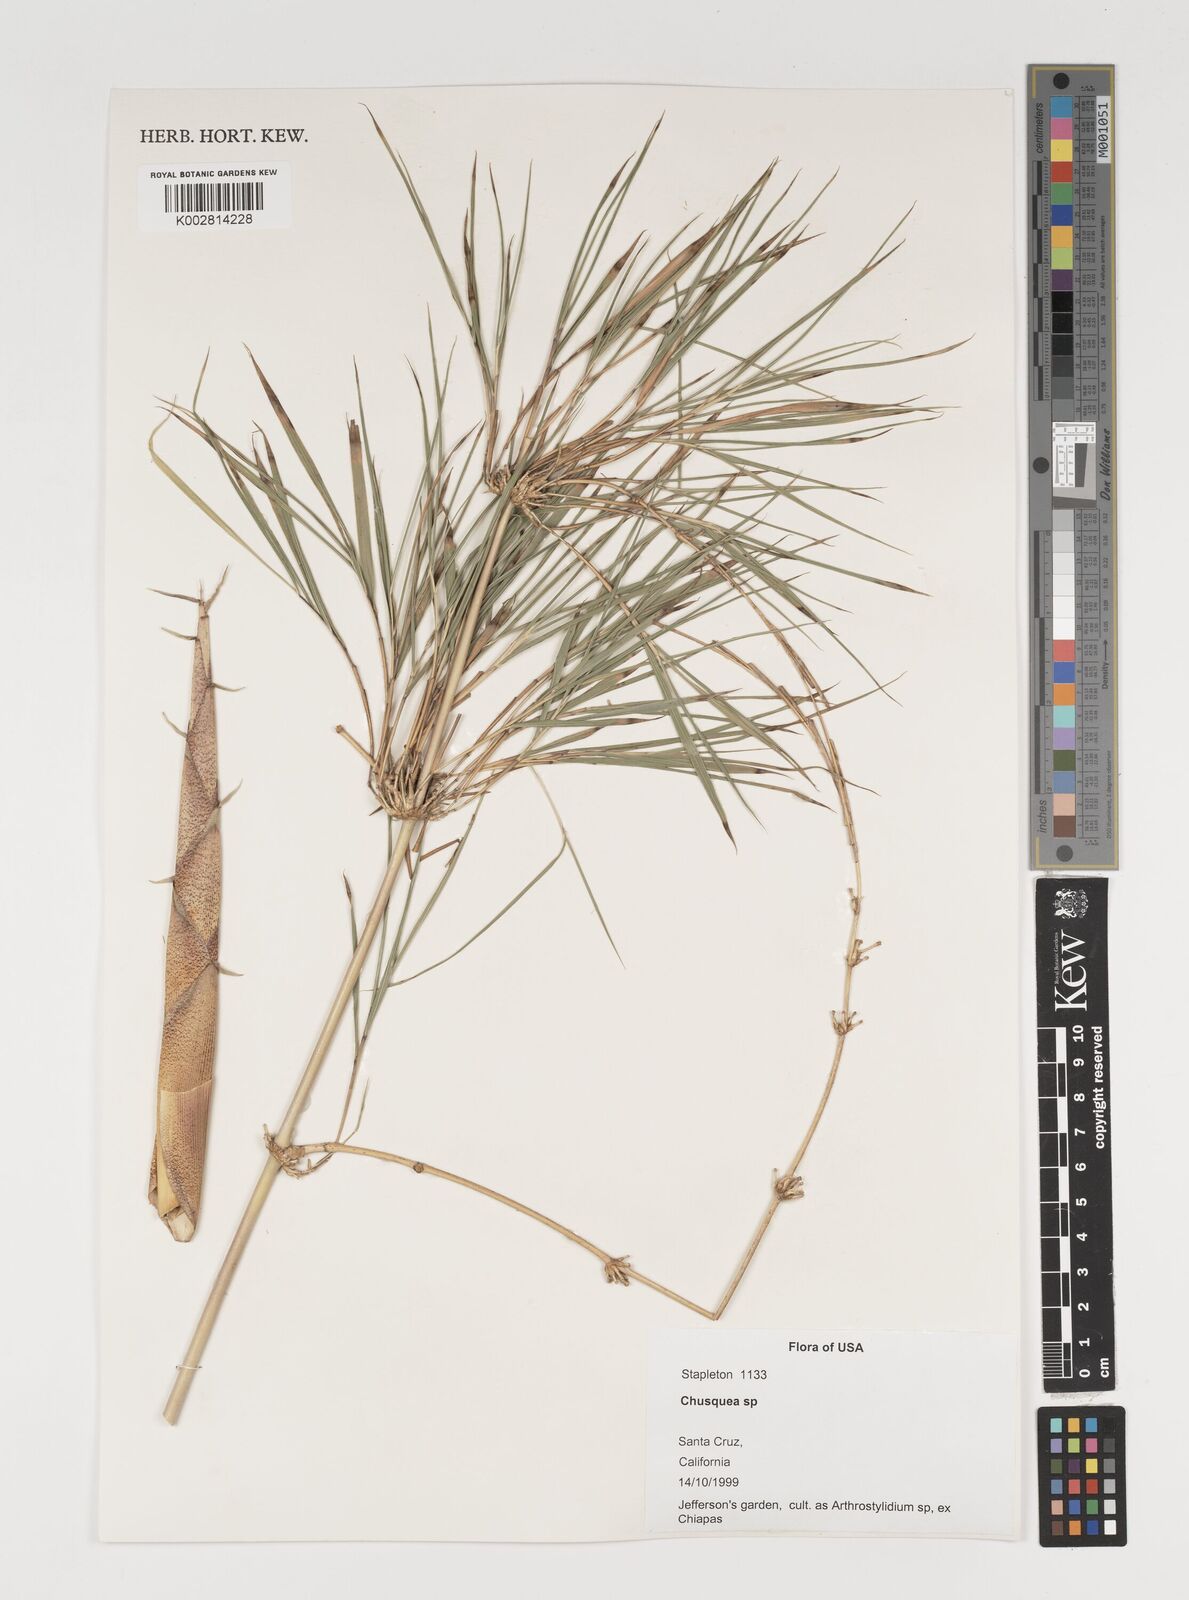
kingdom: Plantae
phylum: Tracheophyta
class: Liliopsida
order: Poales
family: Poaceae
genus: Chusquea
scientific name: Chusquea
